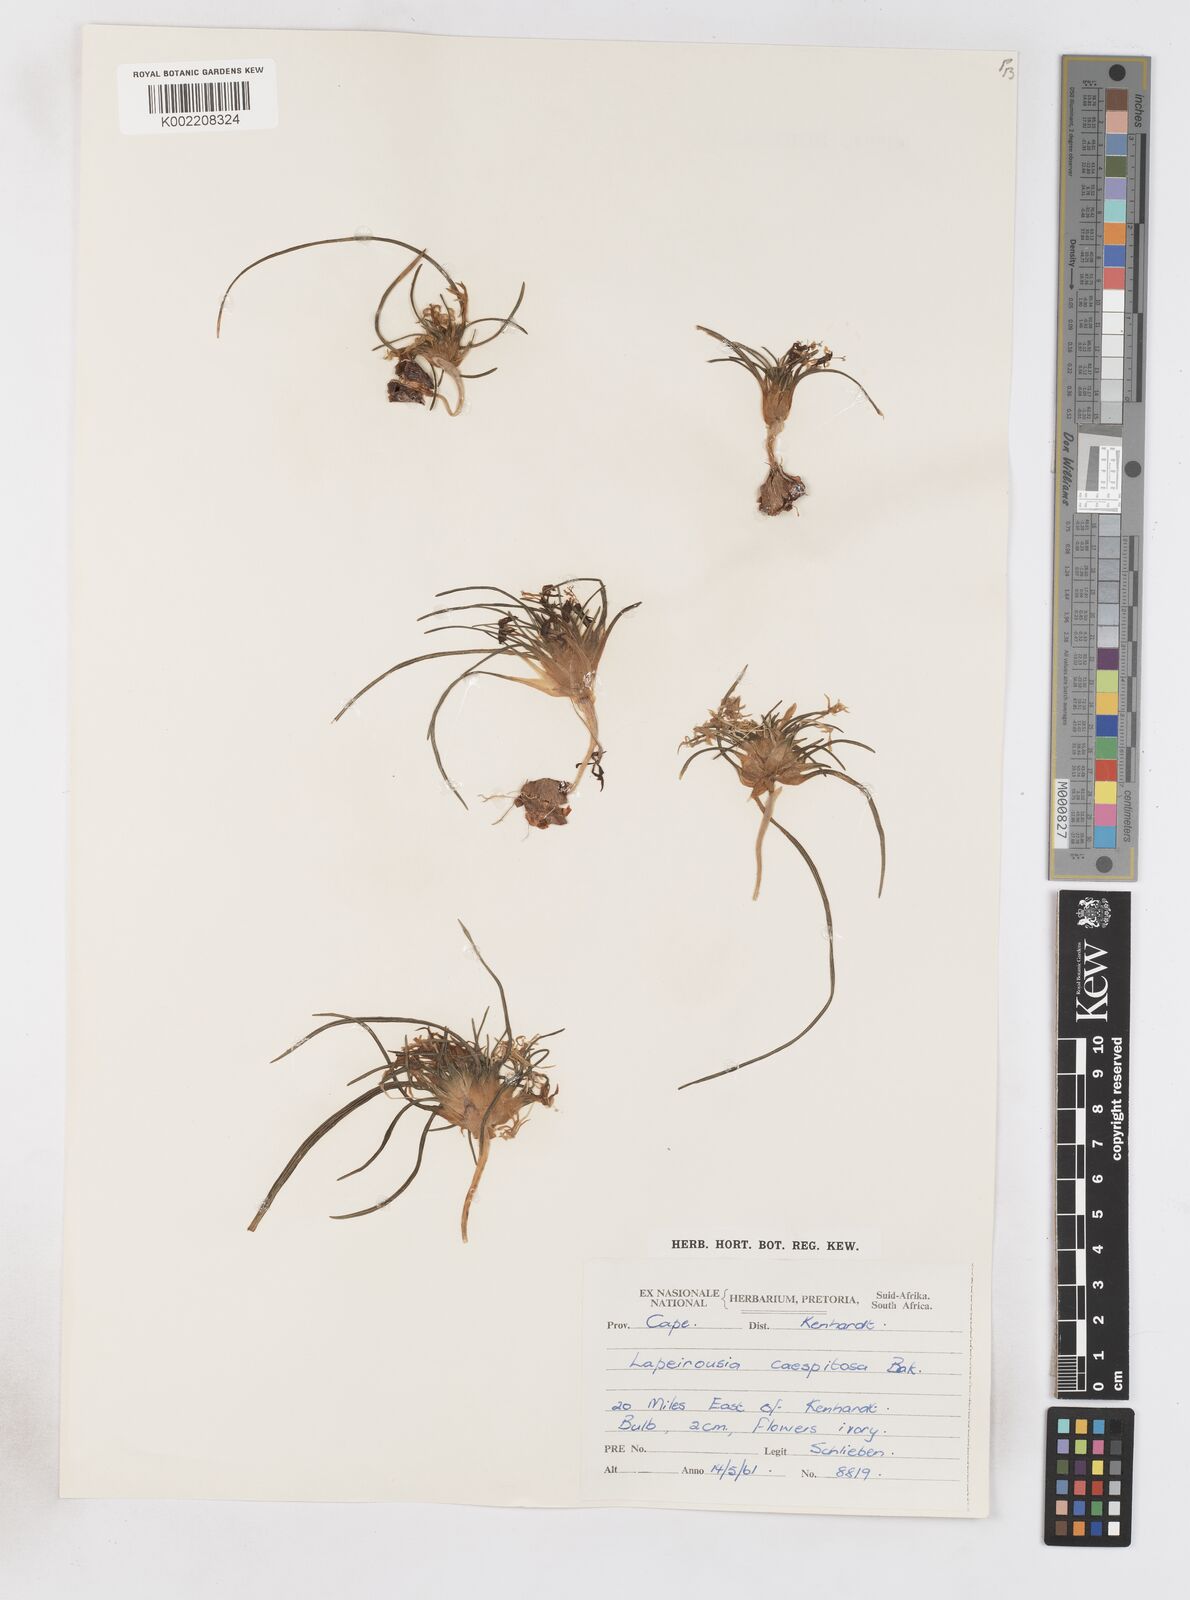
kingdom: Plantae
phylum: Tracheophyta
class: Liliopsida
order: Asparagales
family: Iridaceae
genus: Lapeirousia
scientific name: Lapeirousia plicata
